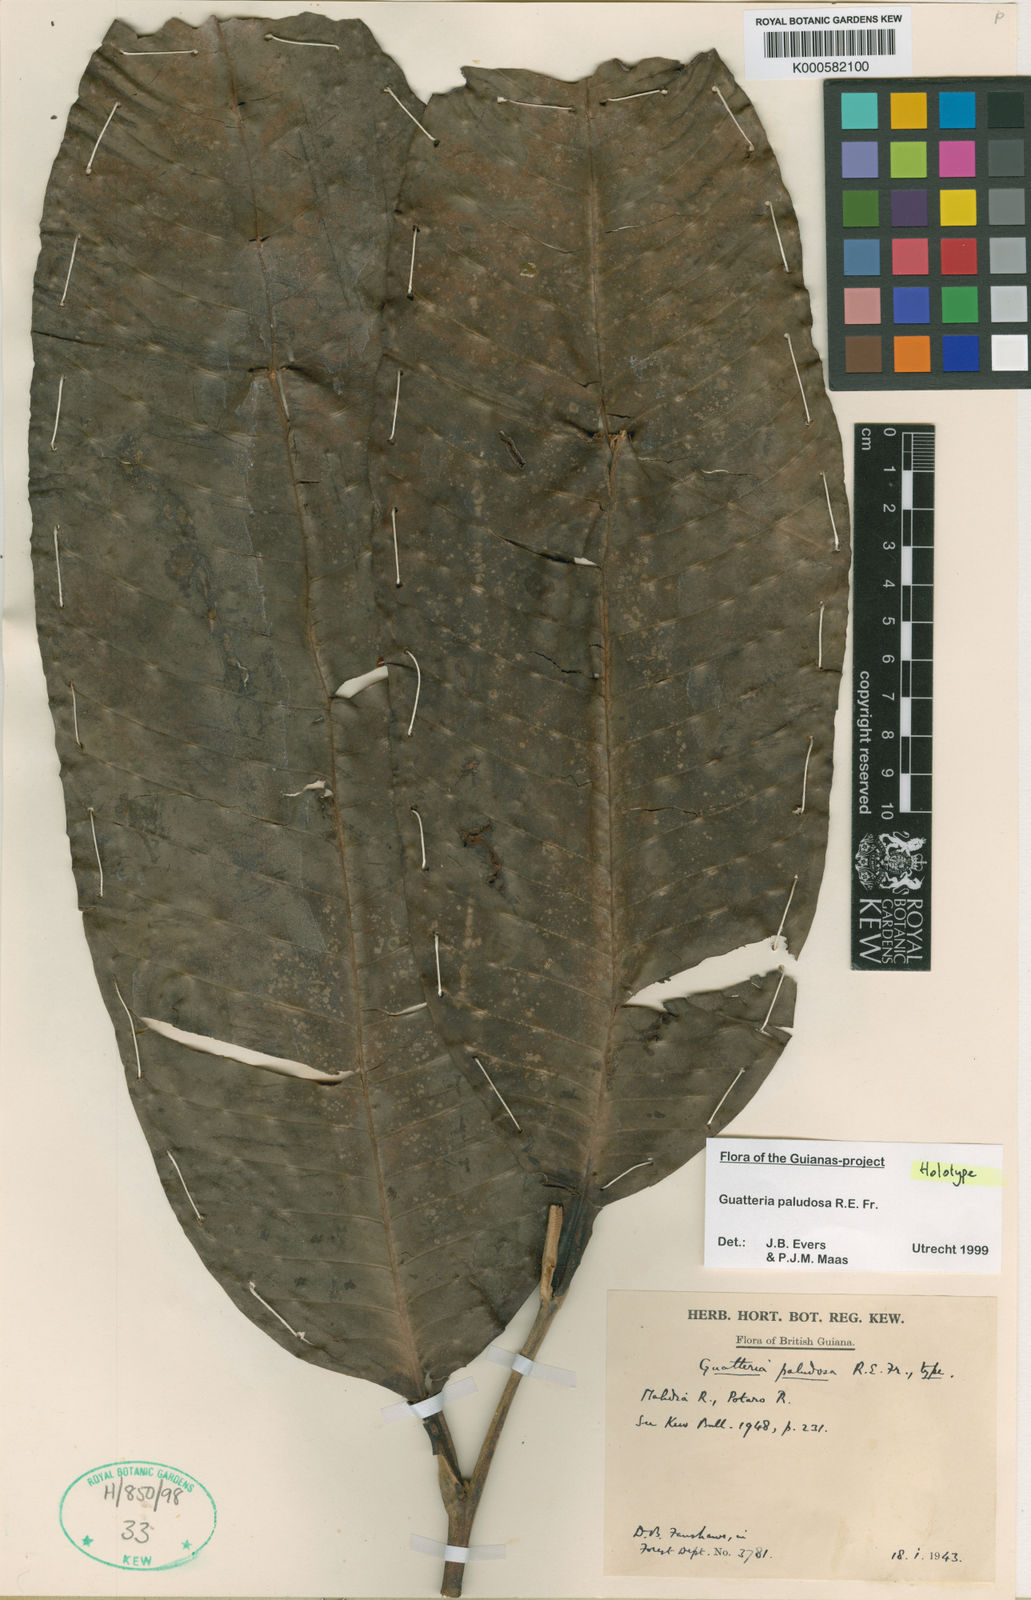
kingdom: Plantae
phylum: Tracheophyta
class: Magnoliopsida
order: Magnoliales
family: Annonaceae
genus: Guatteria
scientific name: Guatteria paludosa
